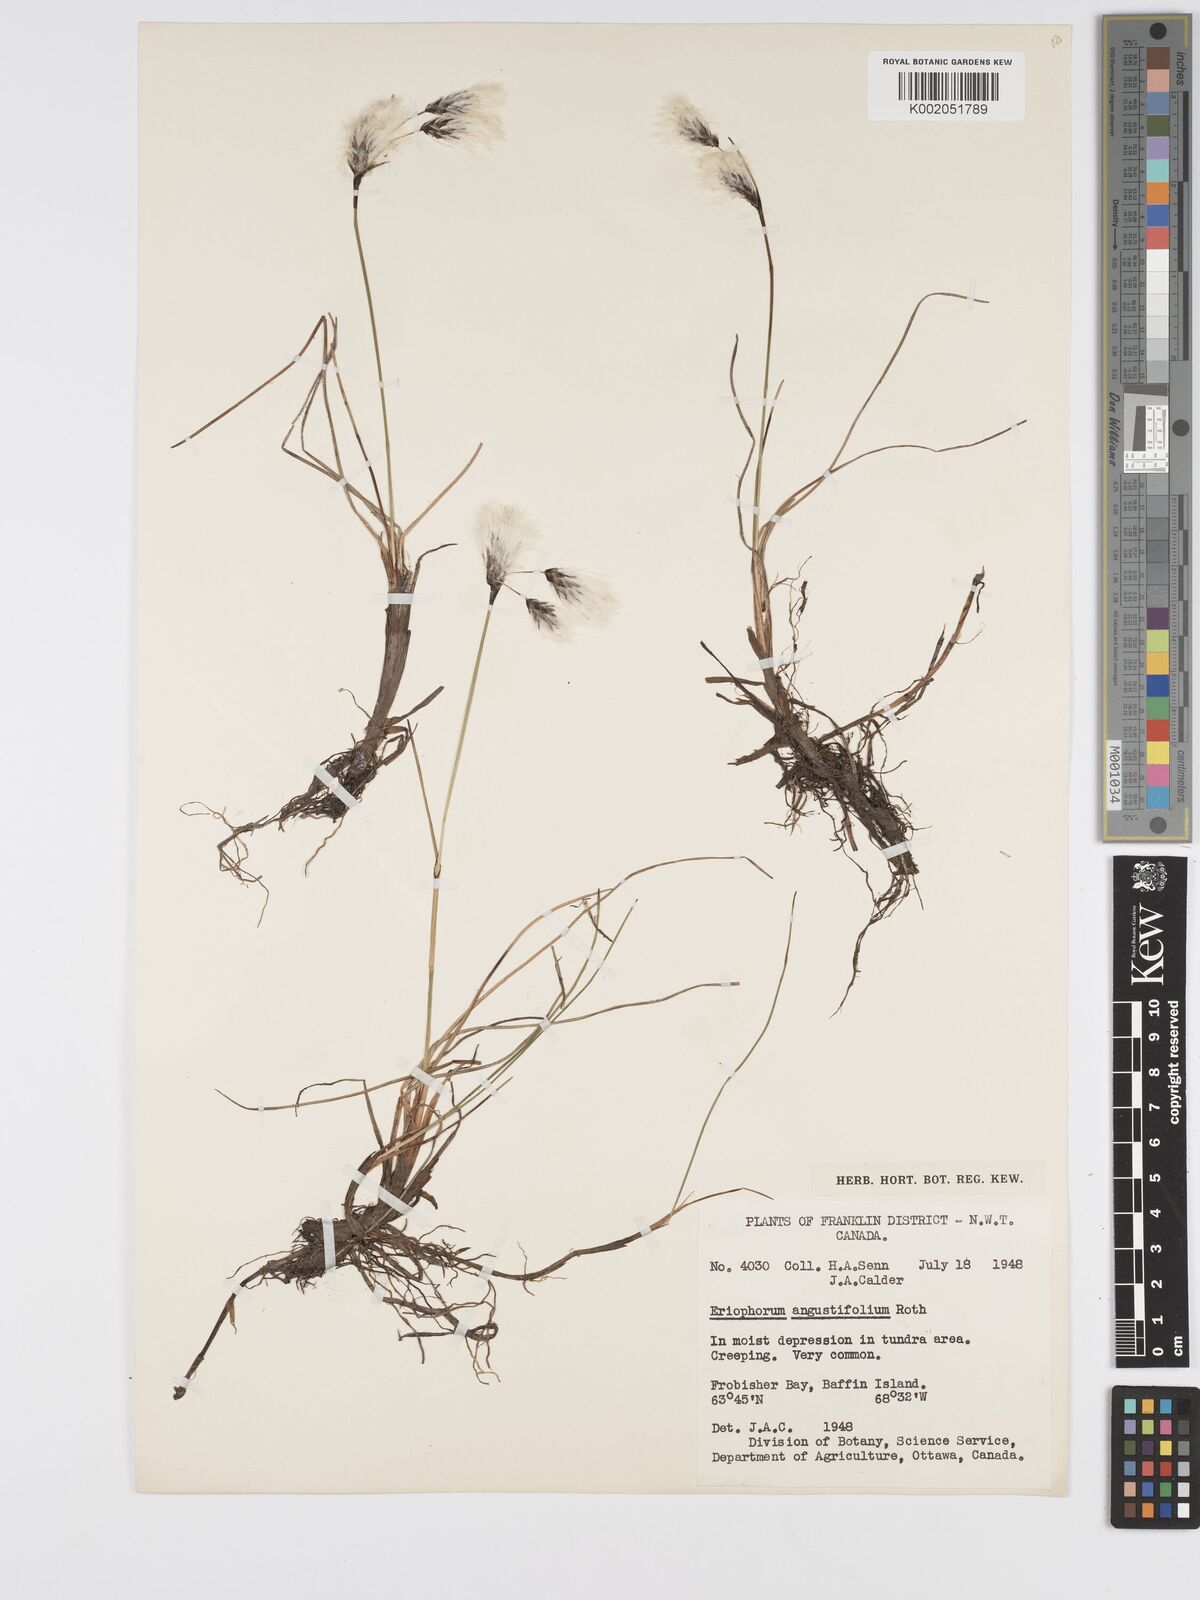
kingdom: Plantae
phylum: Tracheophyta
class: Liliopsida
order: Poales
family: Cyperaceae
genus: Eriophorum
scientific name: Eriophorum angustifolium
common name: Common cottongrass
